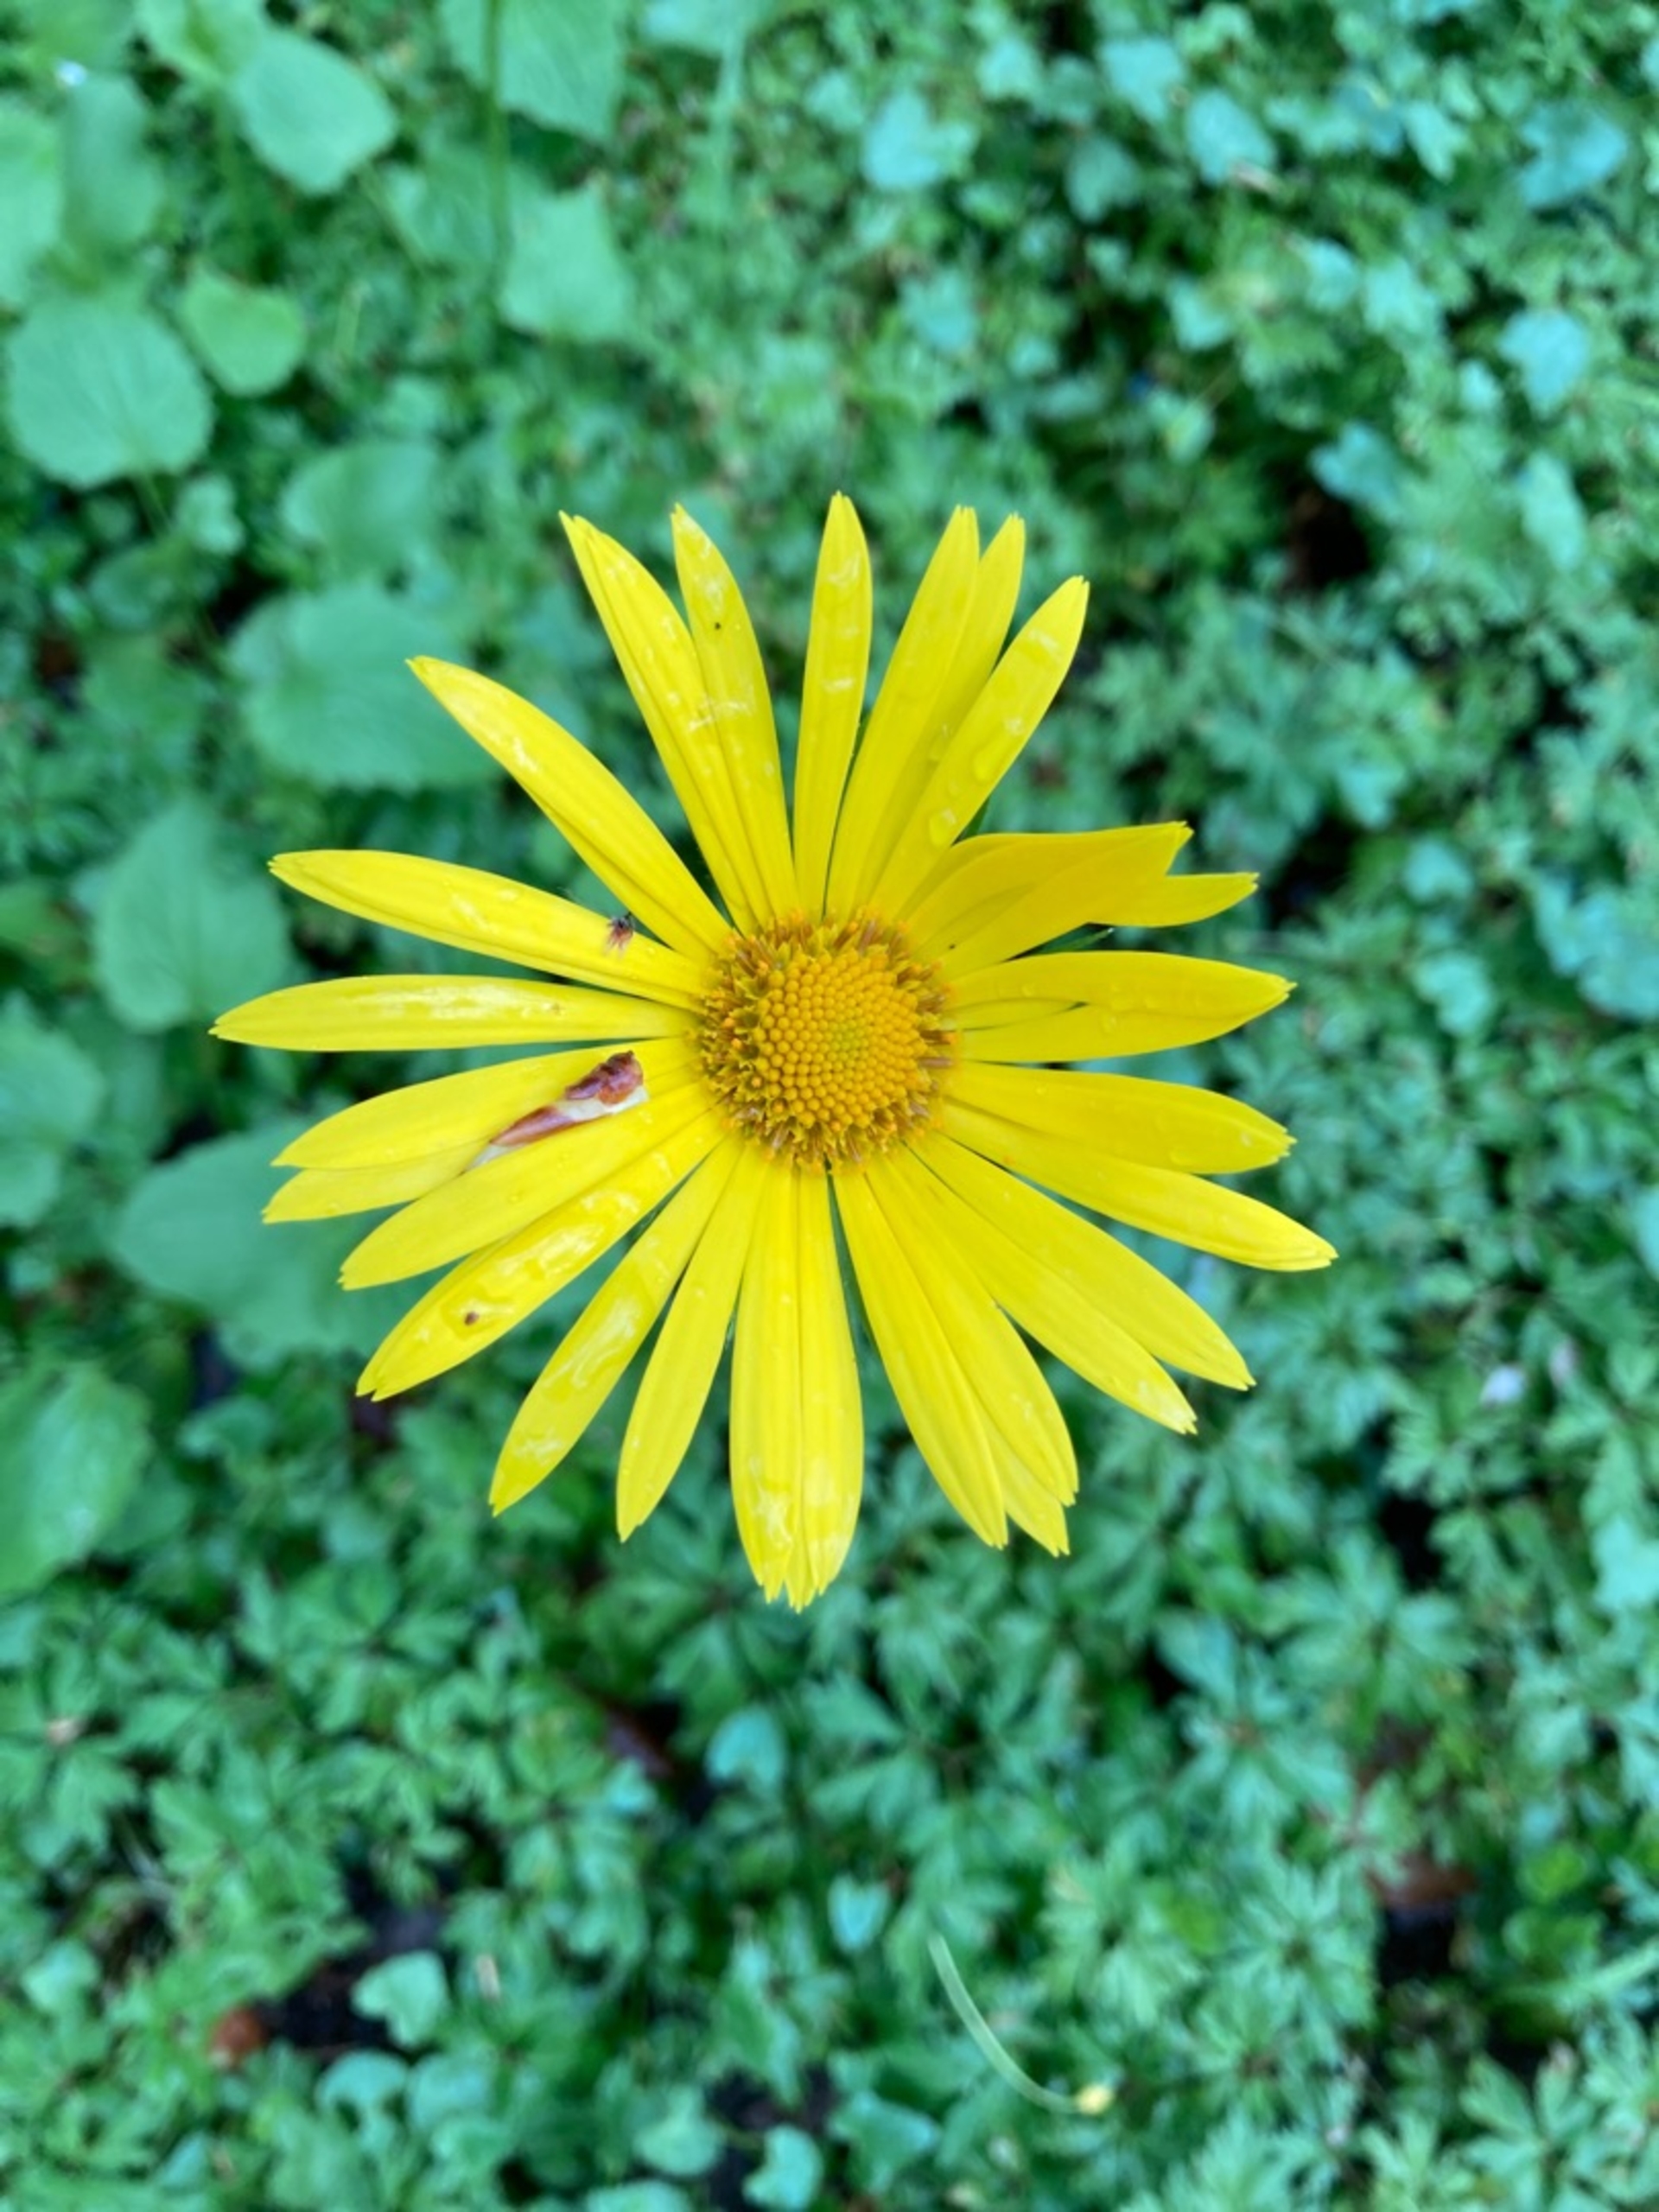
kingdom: Plantae
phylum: Tracheophyta
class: Magnoliopsida
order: Asterales
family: Asteraceae
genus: Doronicum
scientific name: Doronicum orientale
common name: Balkan-gemserod
